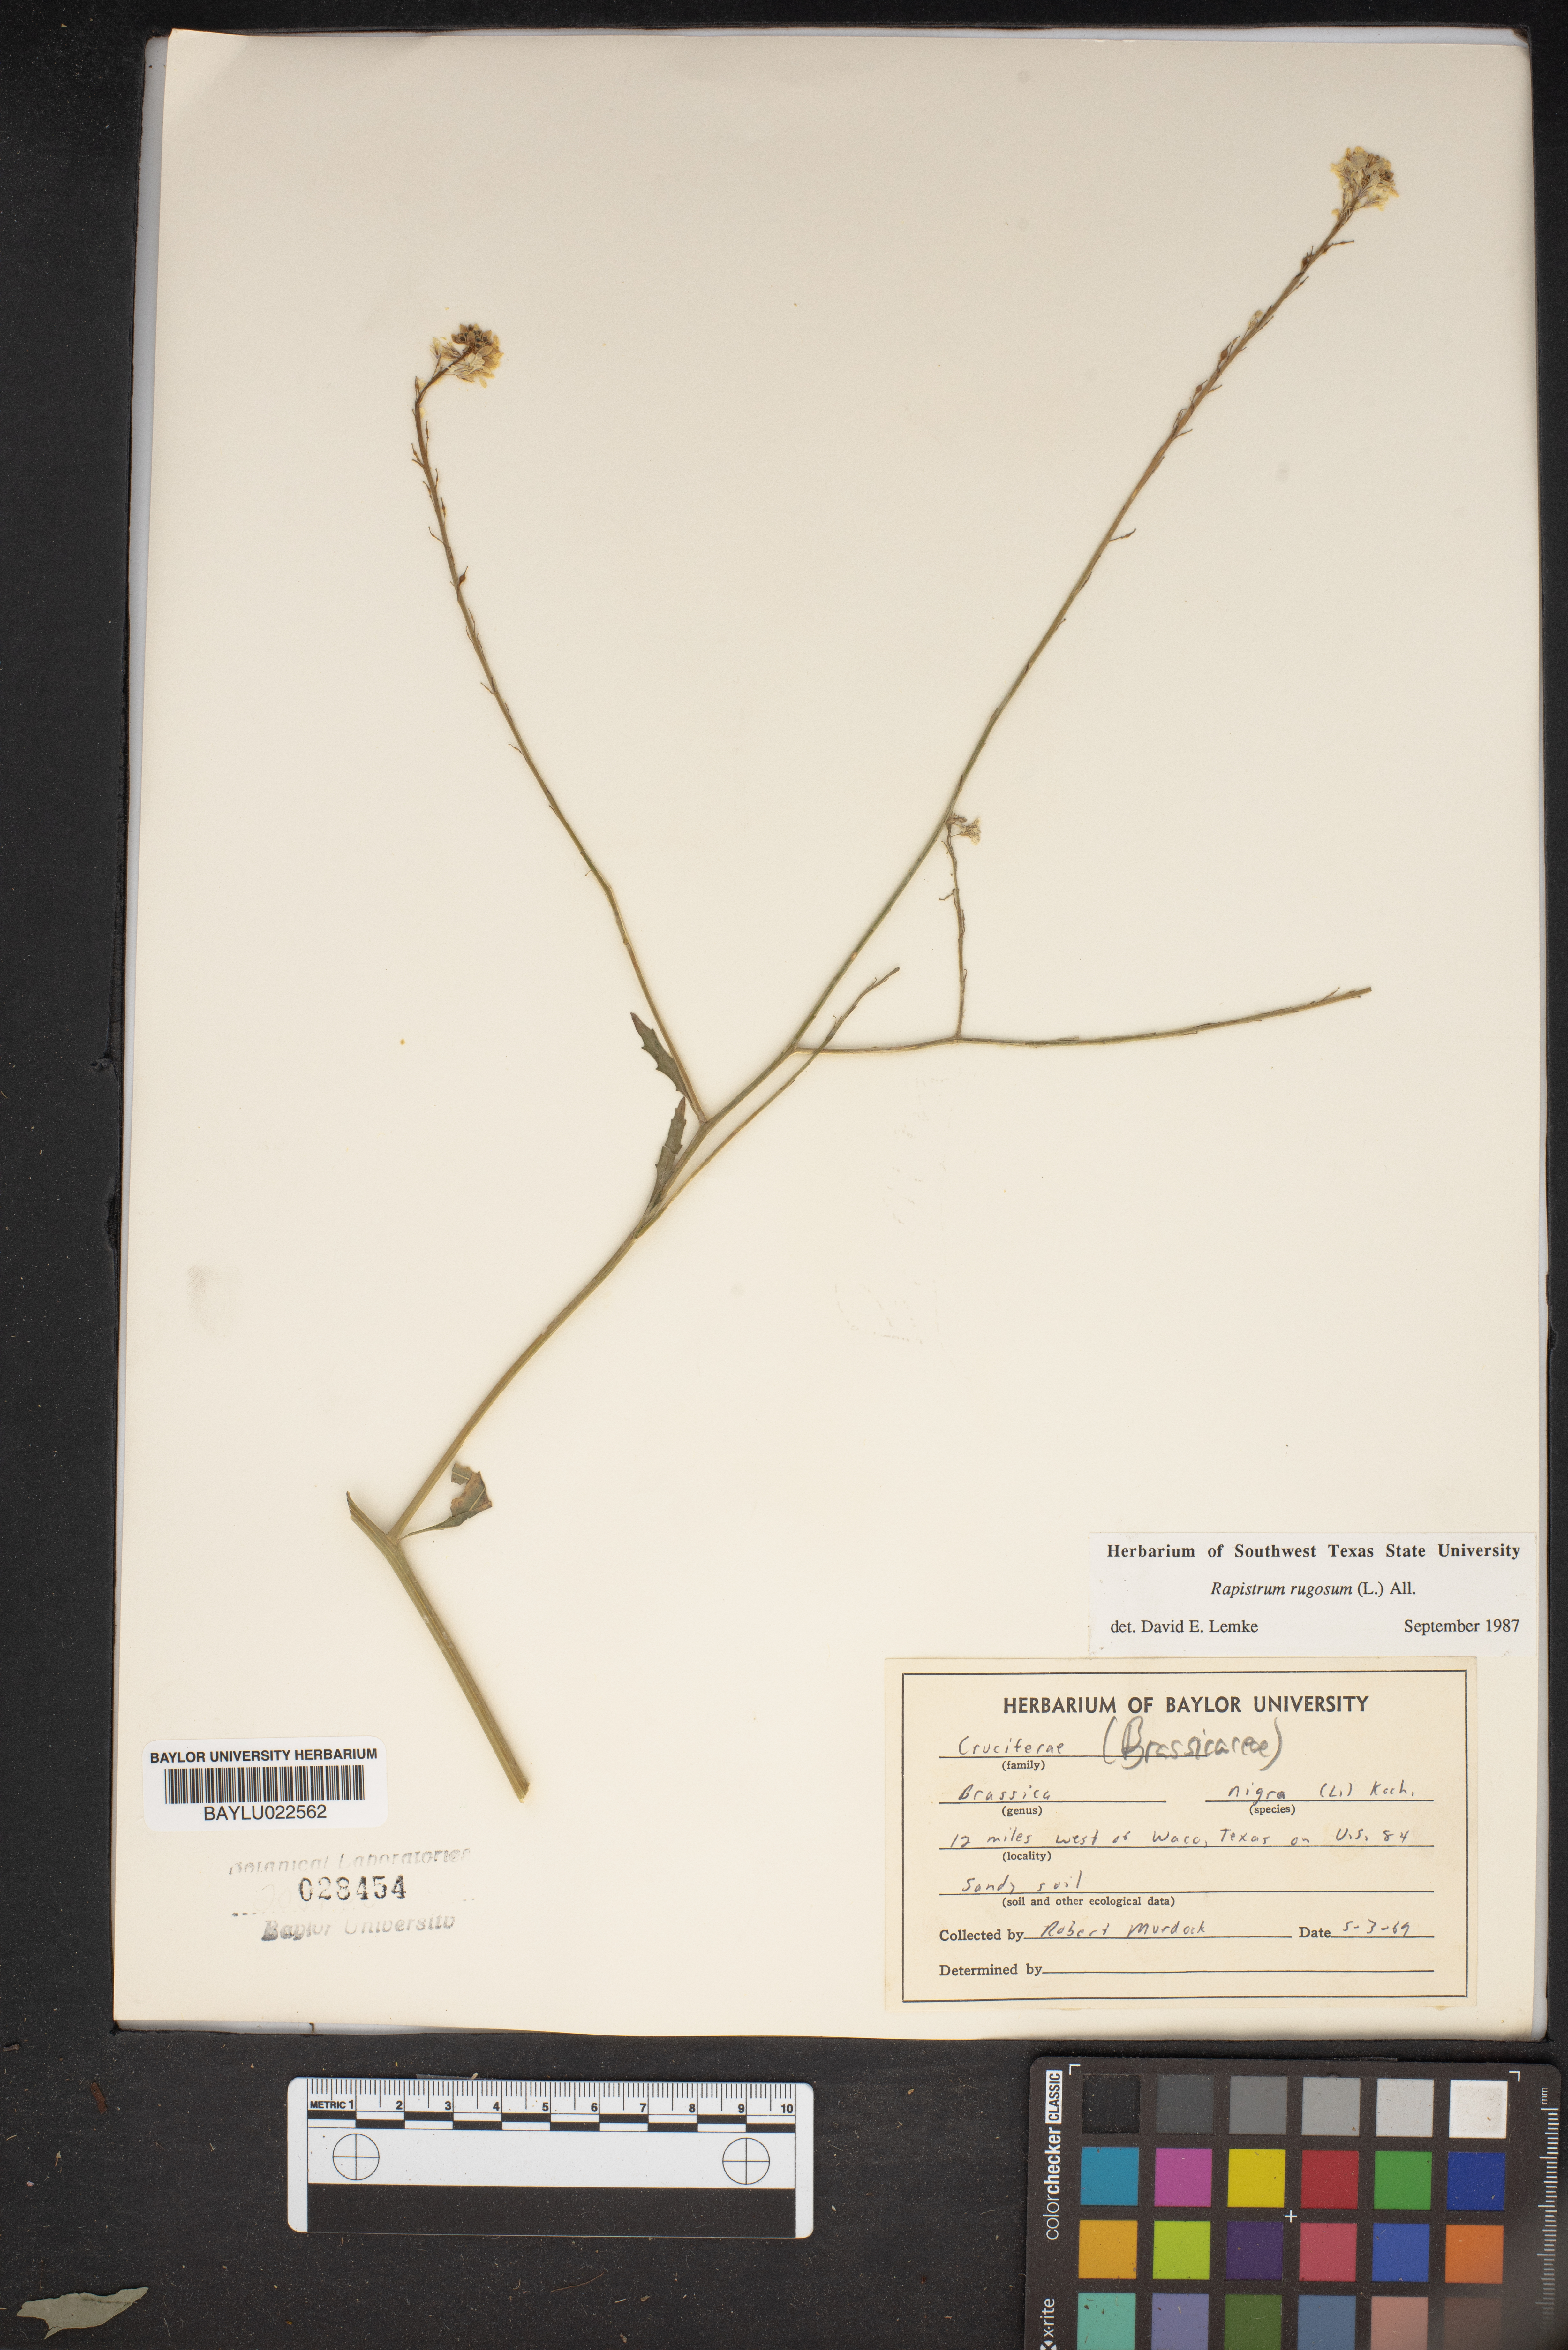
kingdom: Plantae
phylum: Tracheophyta
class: Magnoliopsida
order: Brassicales
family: Brassicaceae
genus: Brassica
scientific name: Brassica nigra
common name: Black mustard
